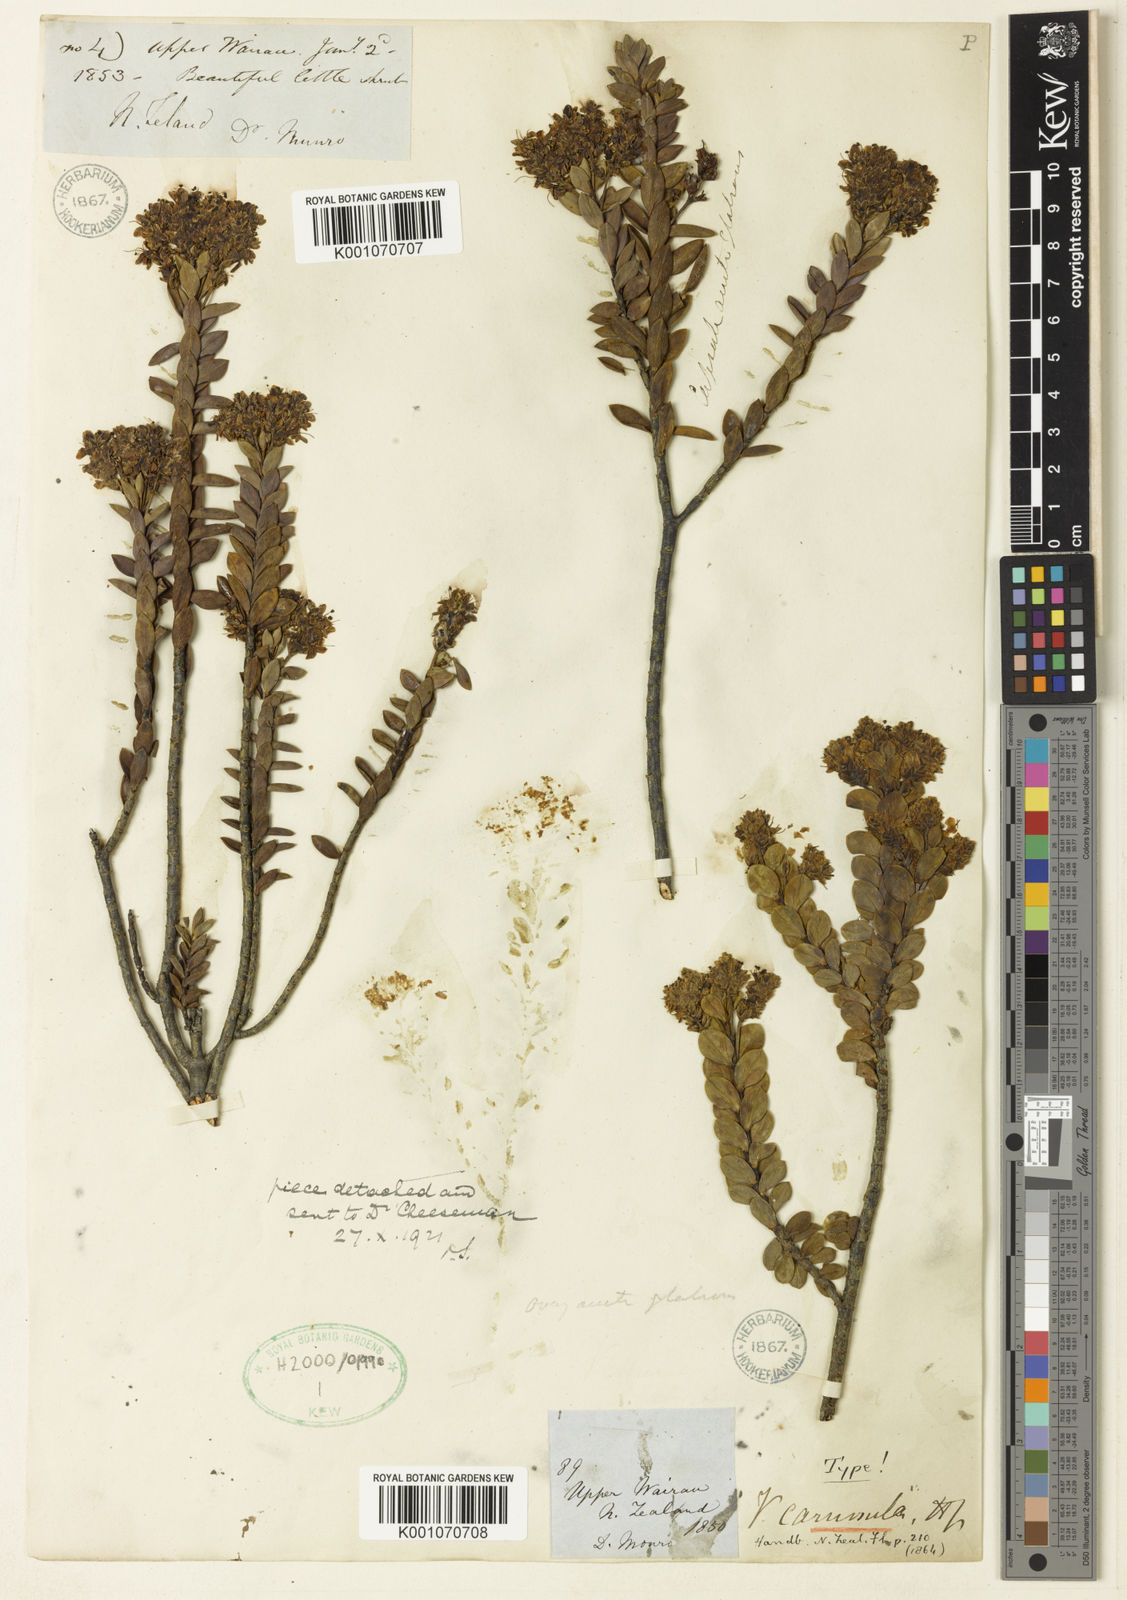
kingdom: Plantae
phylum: Tracheophyta
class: Magnoliopsida
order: Lamiales
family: Plantaginaceae
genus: Veronica
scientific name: Veronica baylyi
